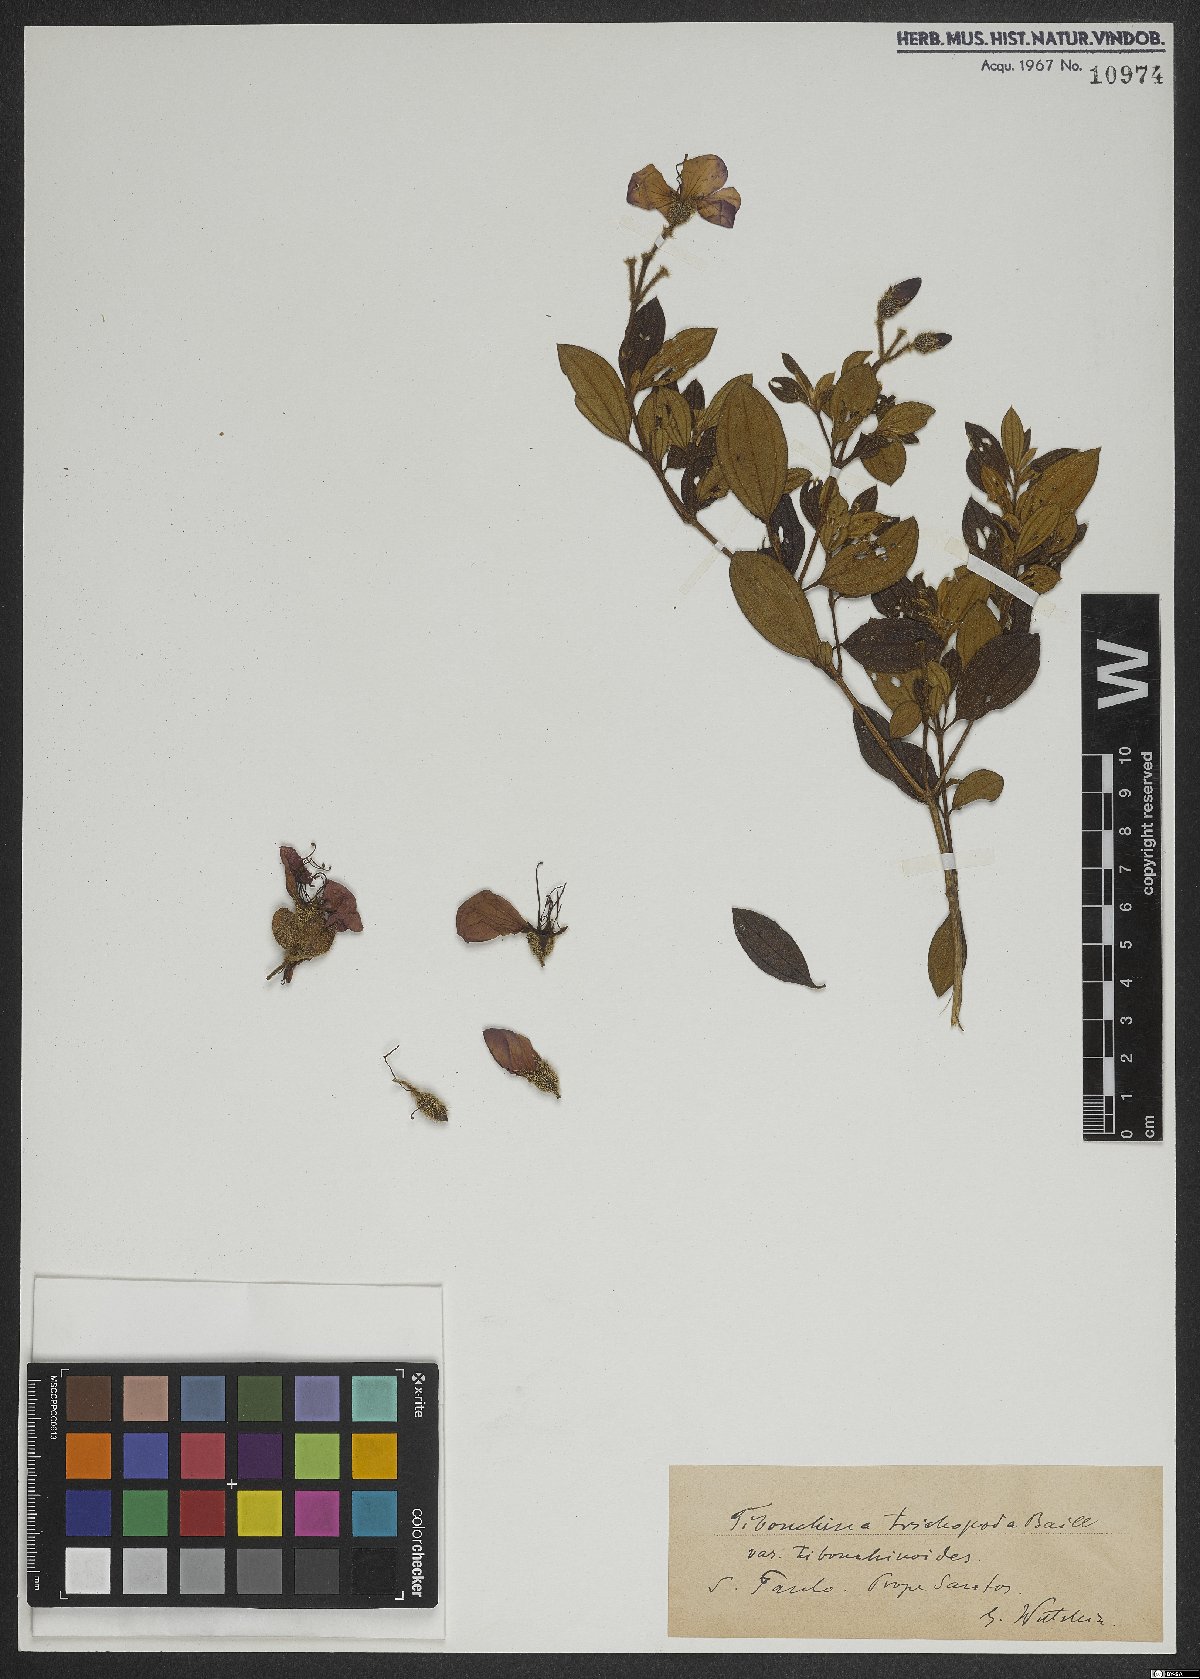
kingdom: Plantae
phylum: Tracheophyta
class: Magnoliopsida
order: Myrtales
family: Melastomataceae
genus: Pleroma
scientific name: Pleroma trichopodum
